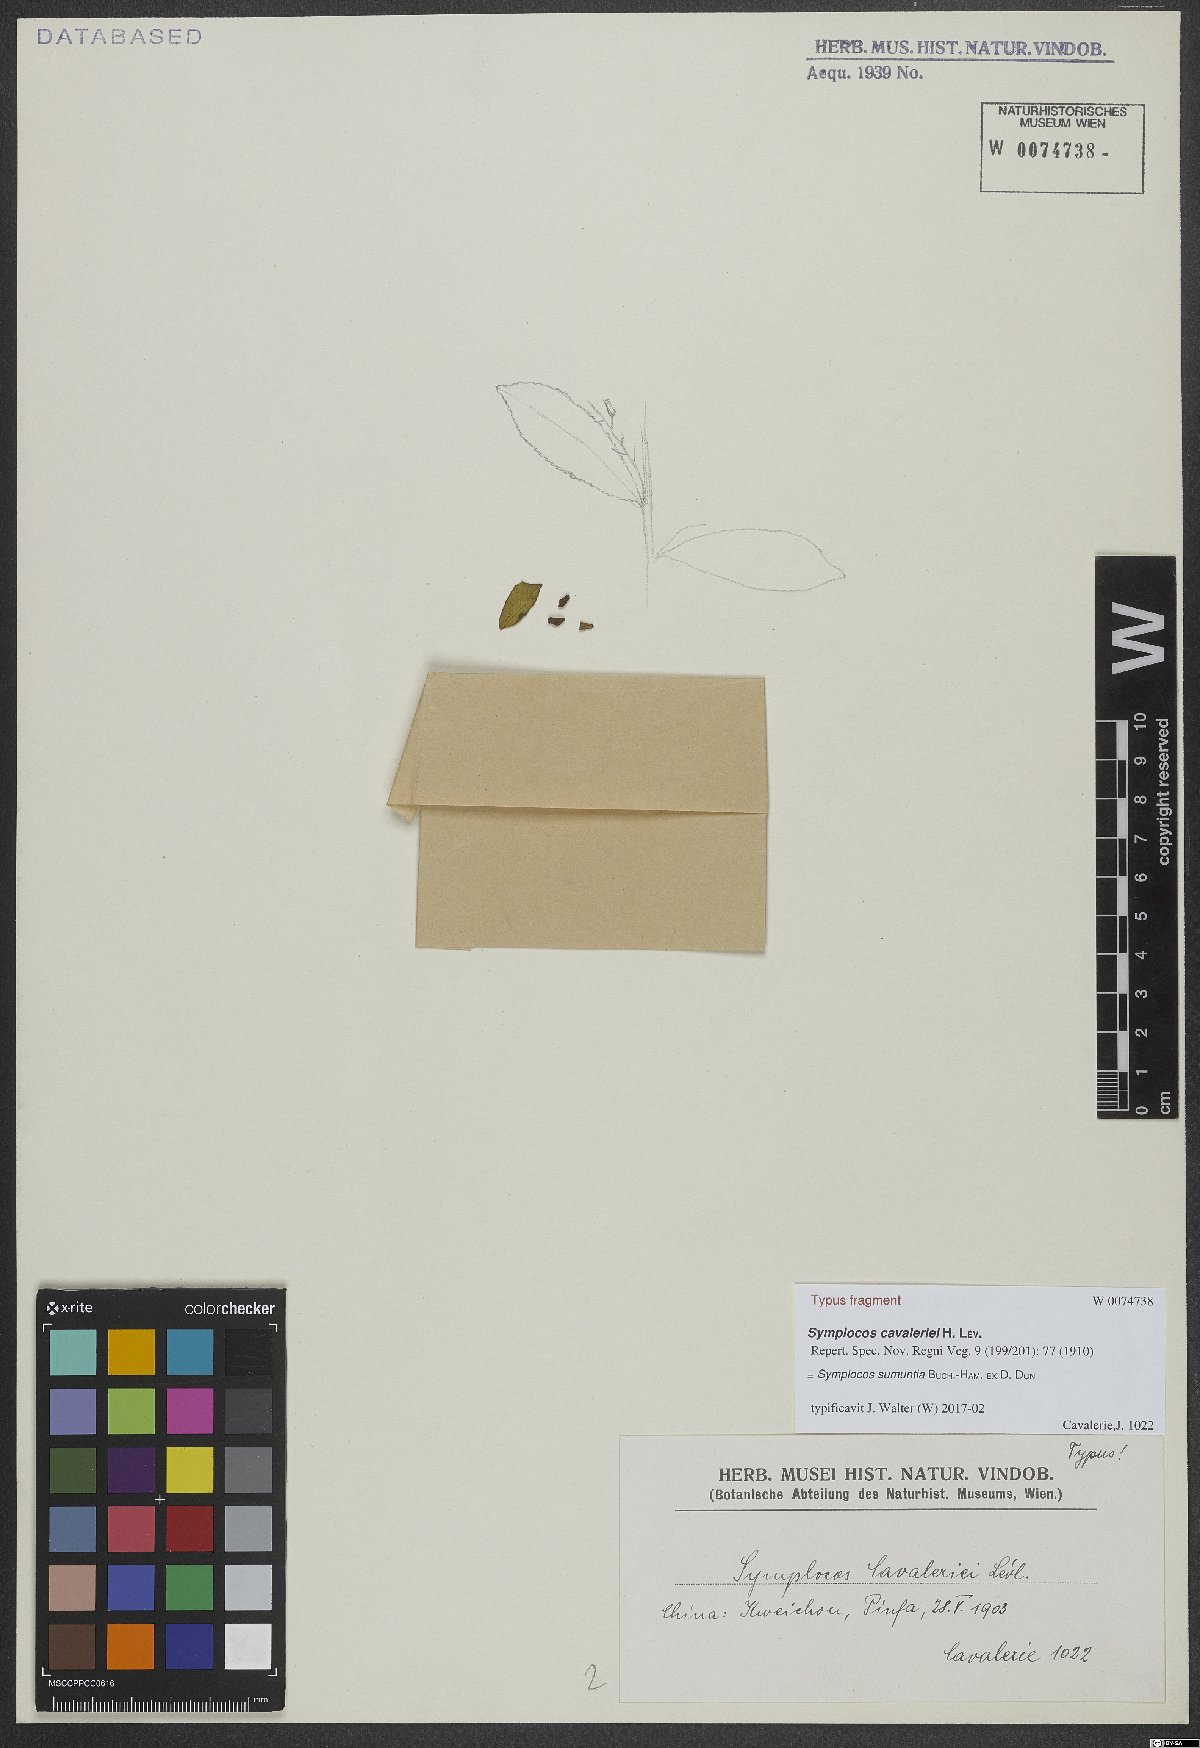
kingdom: Plantae
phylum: Tracheophyta
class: Magnoliopsida
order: Ericales
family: Symplocaceae
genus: Symplocos
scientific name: Symplocos sumuntia
